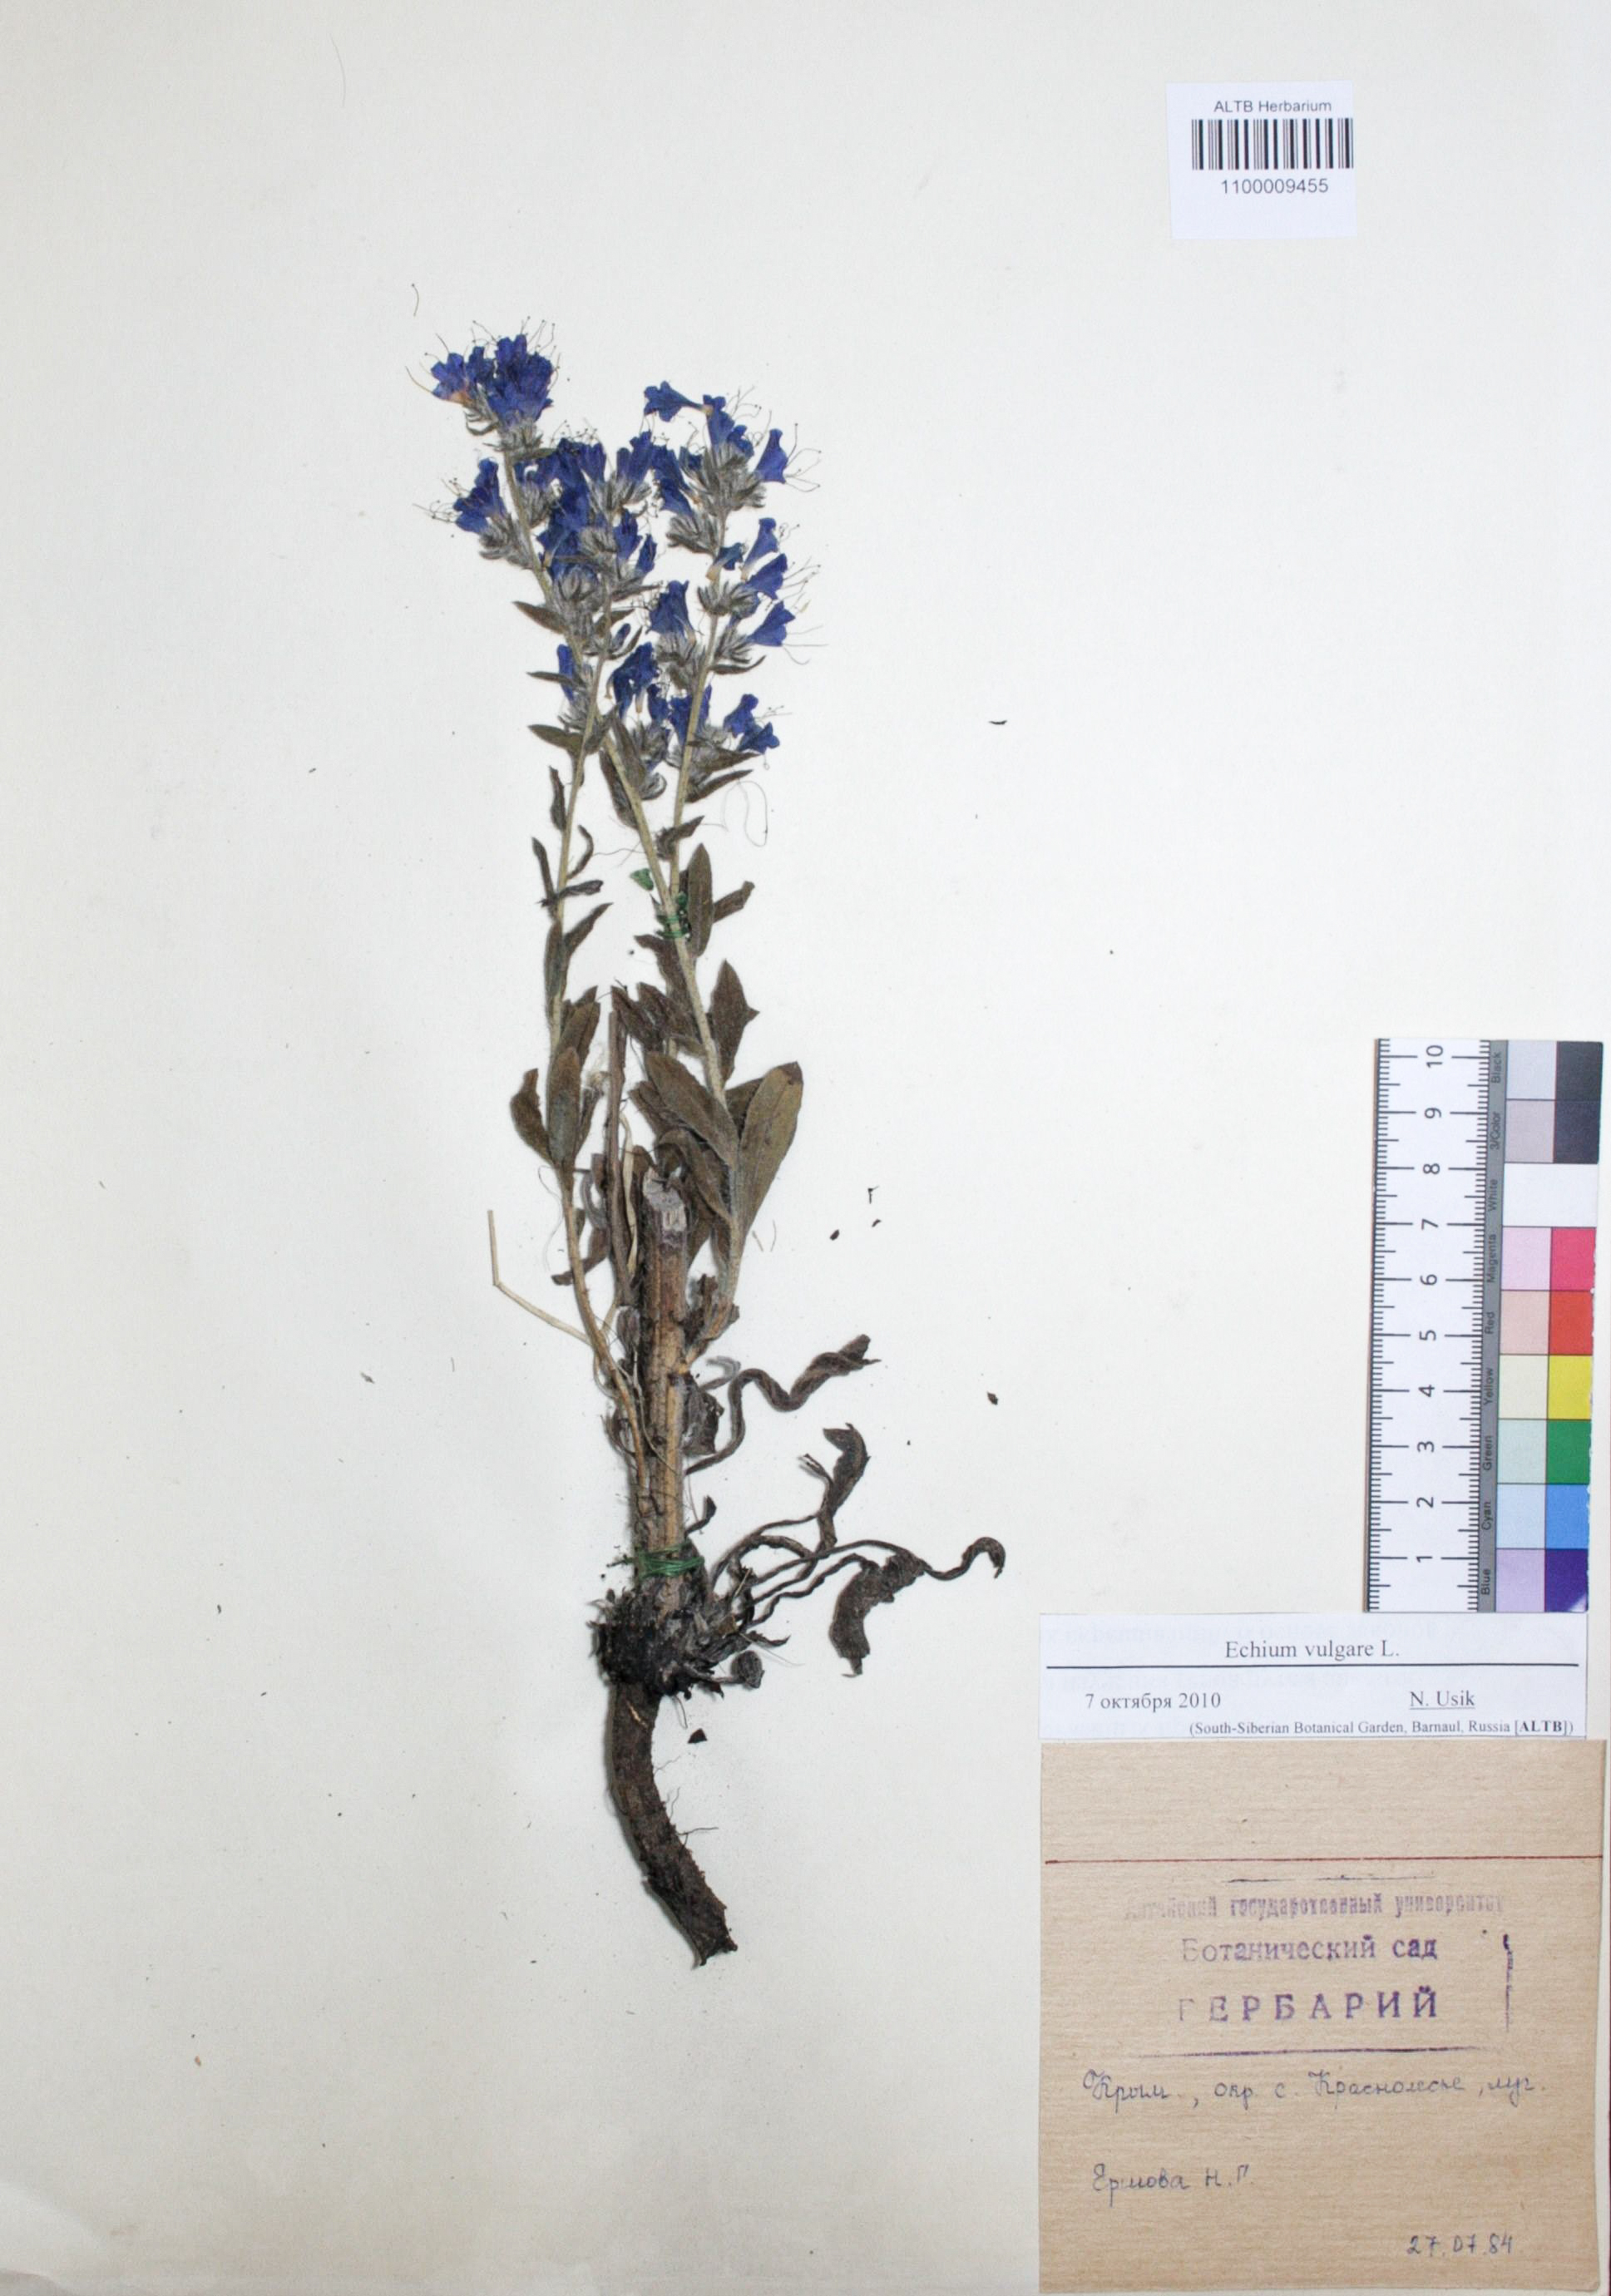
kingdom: Plantae
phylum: Tracheophyta
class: Magnoliopsida
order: Boraginales
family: Boraginaceae
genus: Echium
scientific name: Echium vulgare
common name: Common viper's bugloss
